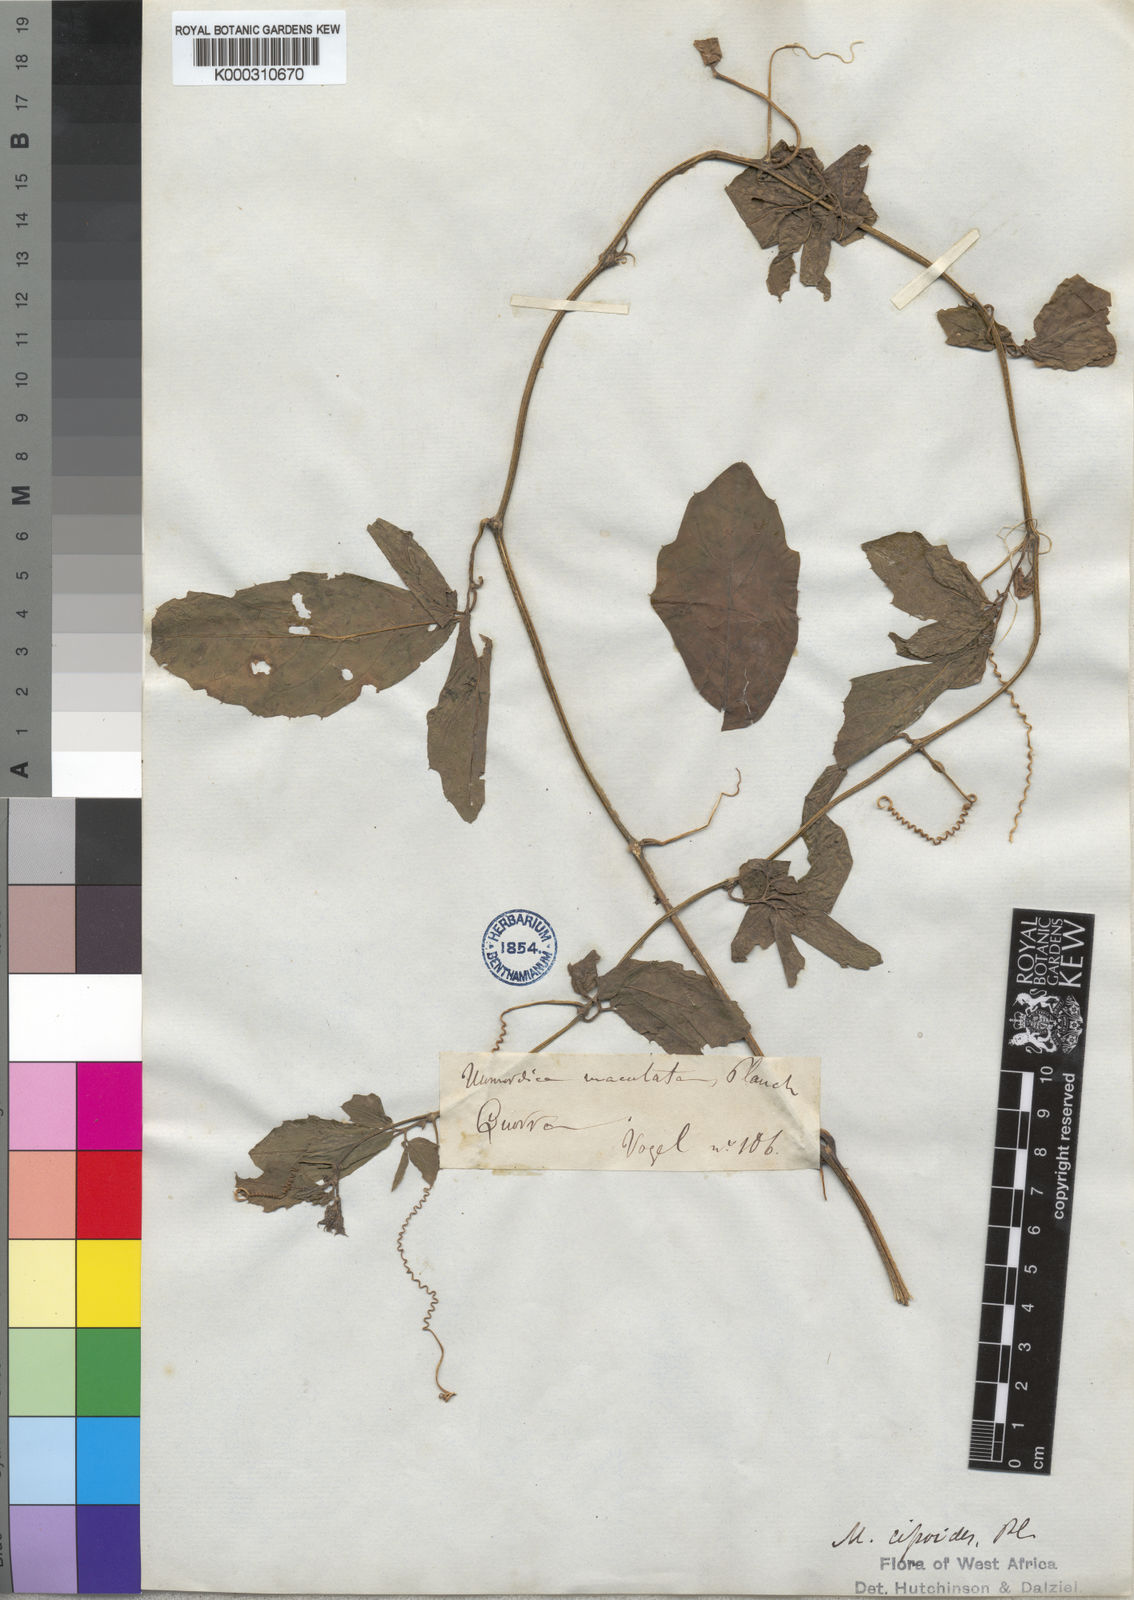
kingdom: Plantae
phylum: Tracheophyta
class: Magnoliopsida
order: Cucurbitales
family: Cucurbitaceae
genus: Momordica
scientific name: Momordica
